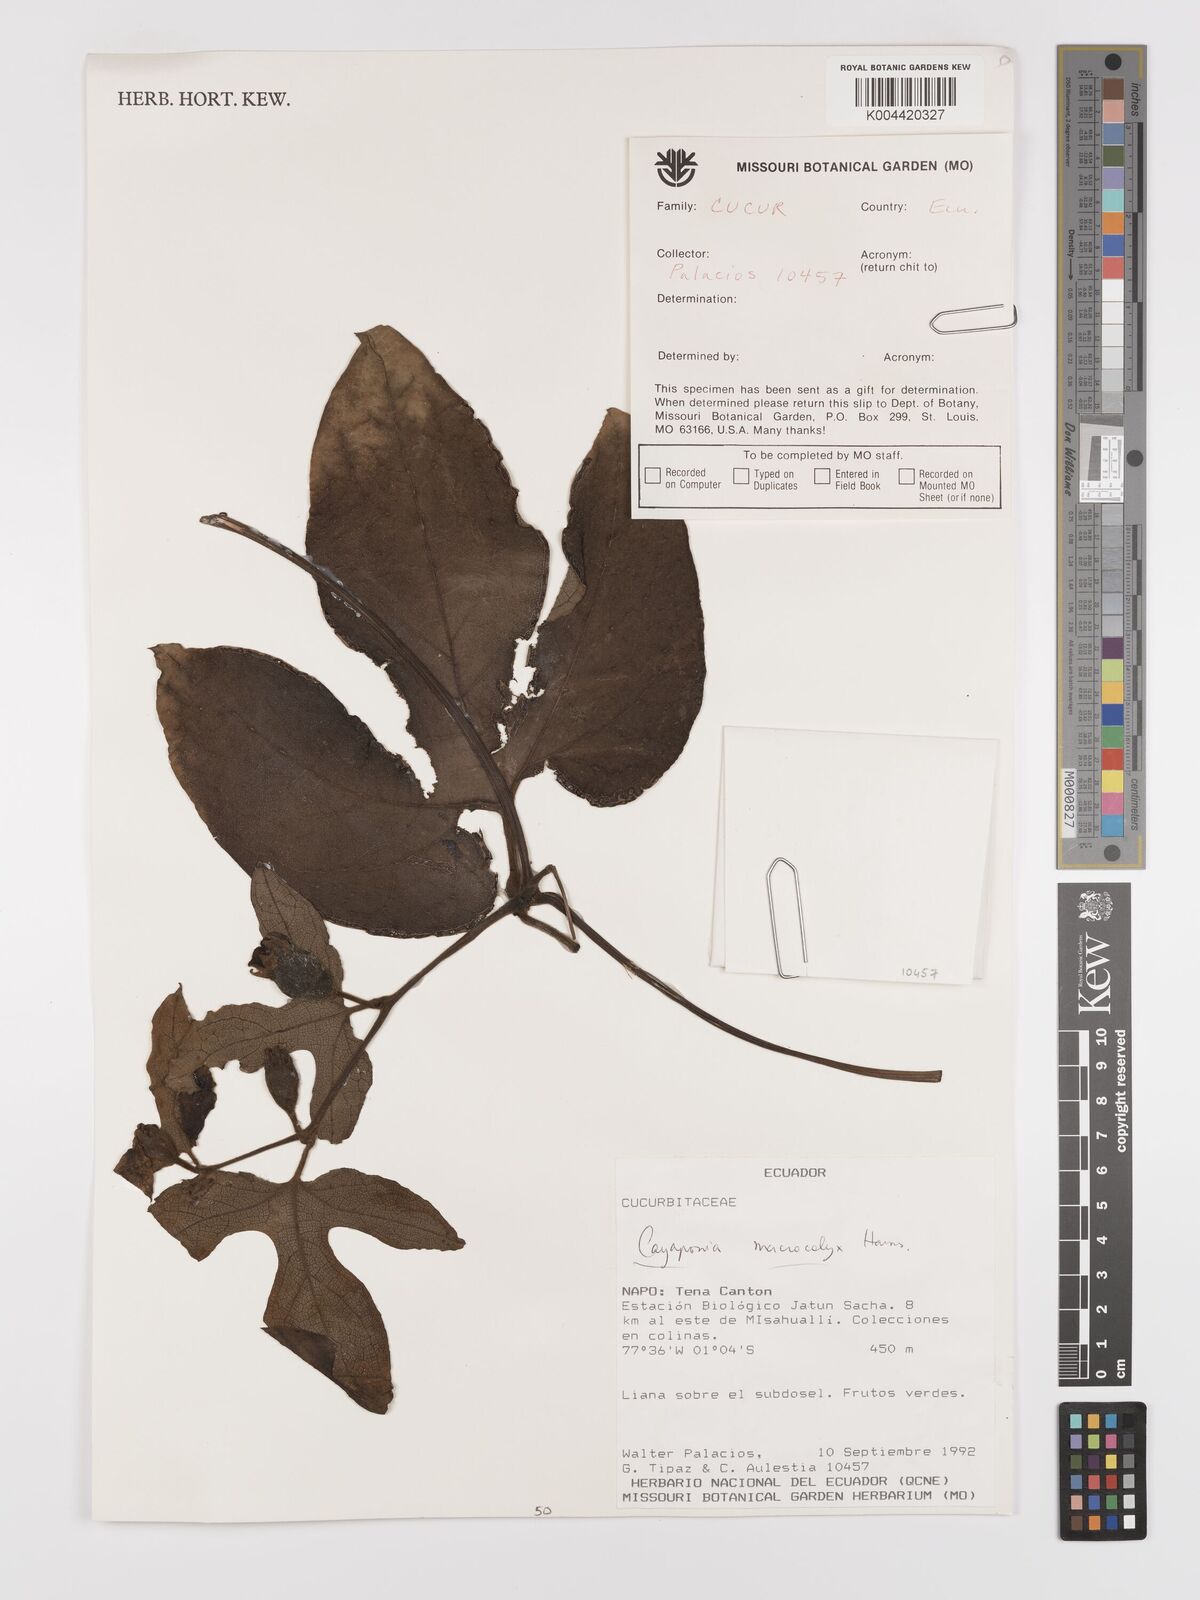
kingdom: Plantae
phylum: Tracheophyta
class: Magnoliopsida
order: Cucurbitales
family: Cucurbitaceae
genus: Cayaponia
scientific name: Cayaponia macrocalyx
